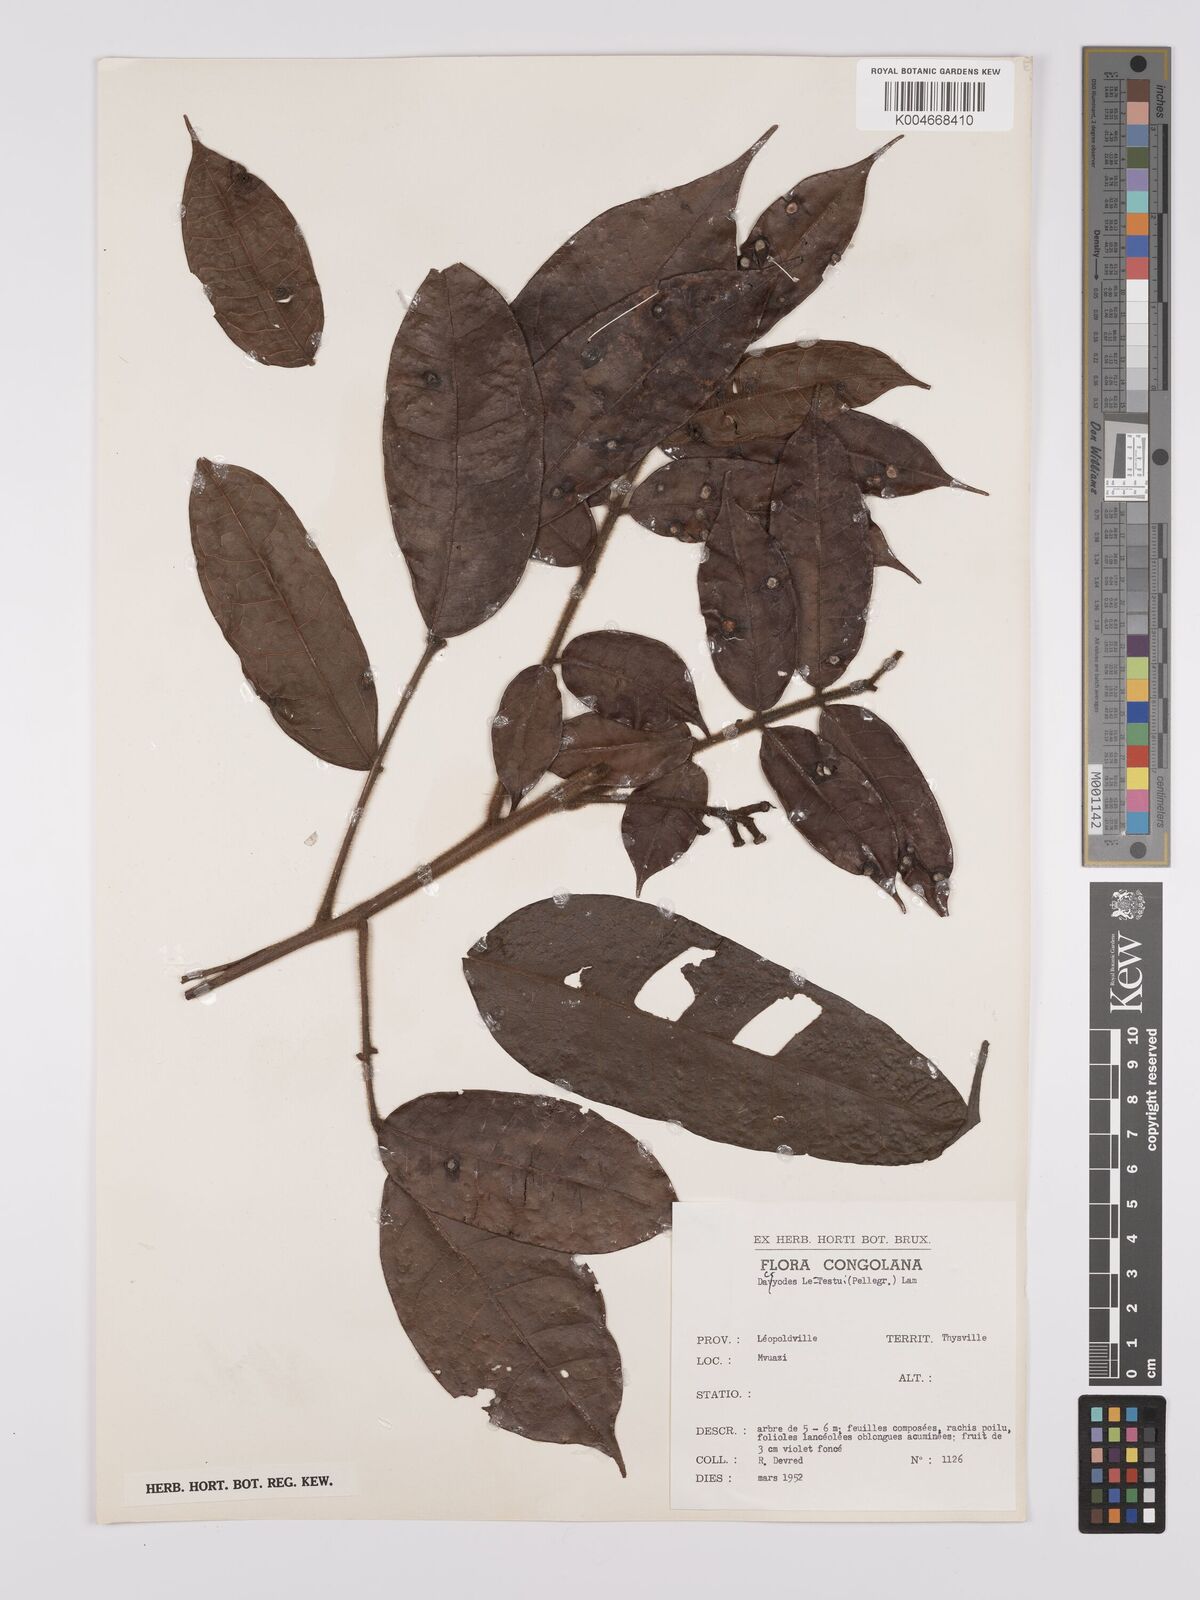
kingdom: Plantae
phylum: Tracheophyta
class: Magnoliopsida
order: Sapindales
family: Burseraceae
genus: Pachylobus
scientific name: Pachylobus letestui
